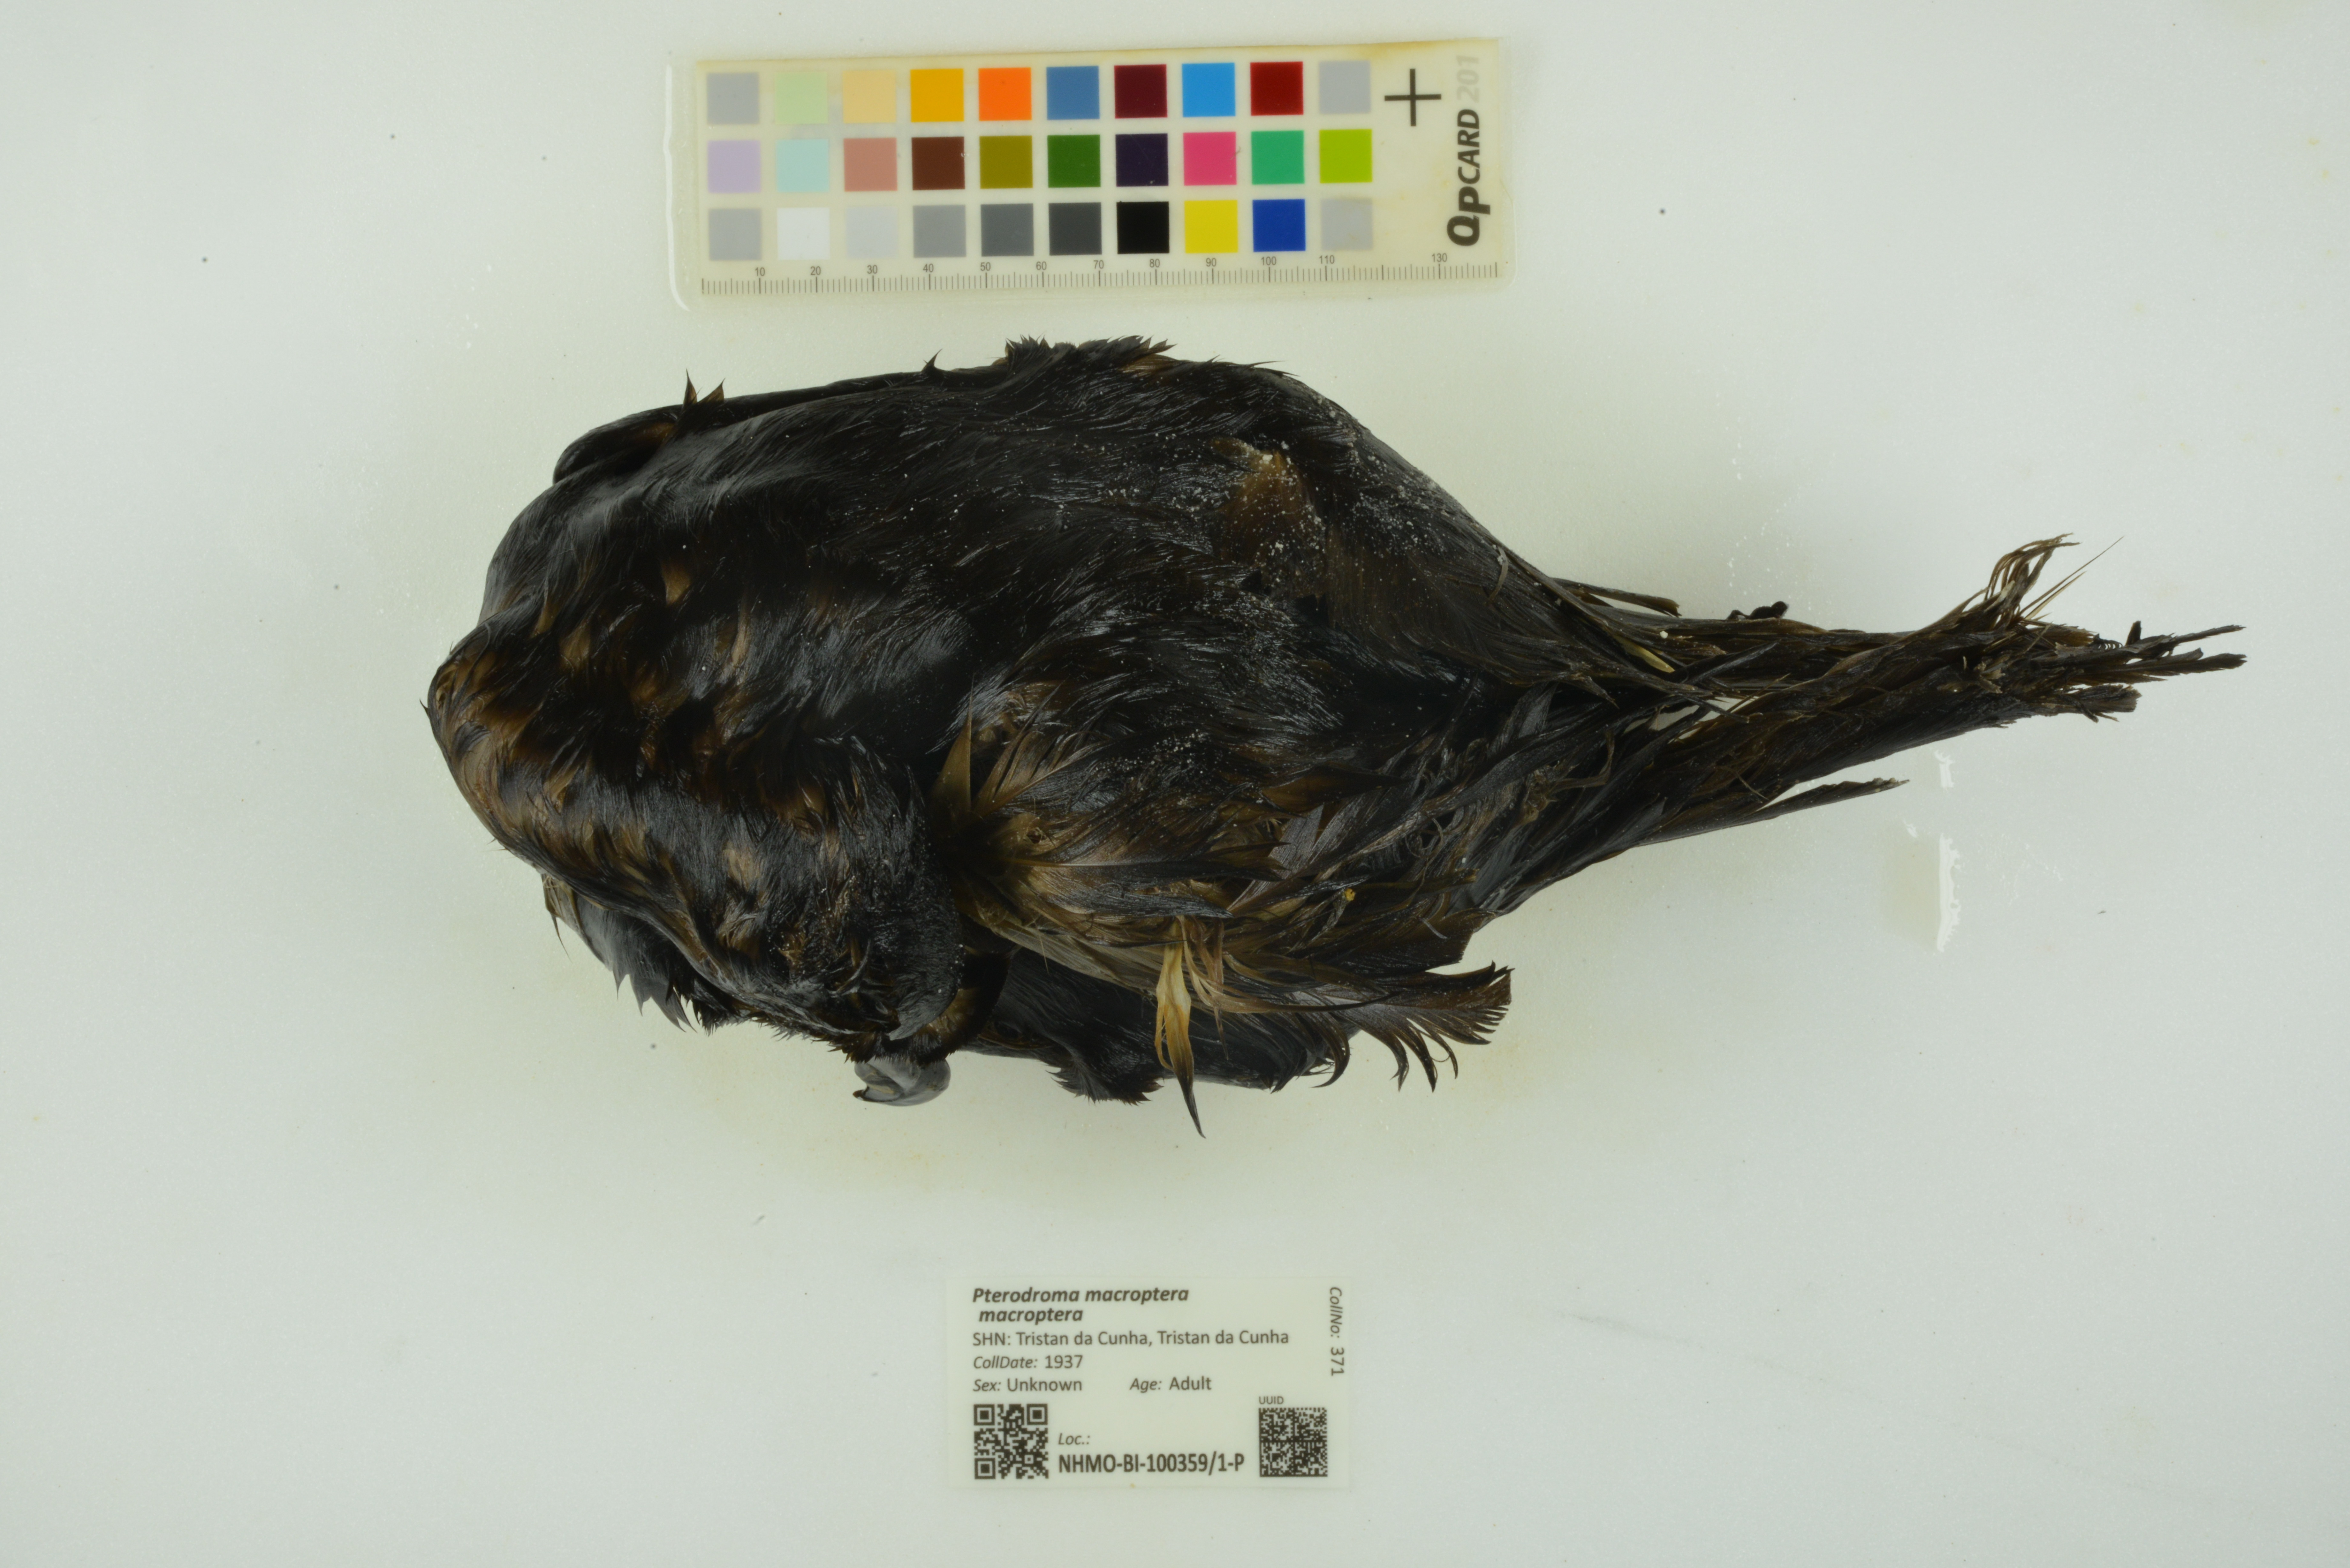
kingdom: Animalia
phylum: Chordata
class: Aves
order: Procellariiformes
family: Procellariidae
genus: Pterodroma
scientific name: Pterodroma macroptera
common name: Great-winged petrel
